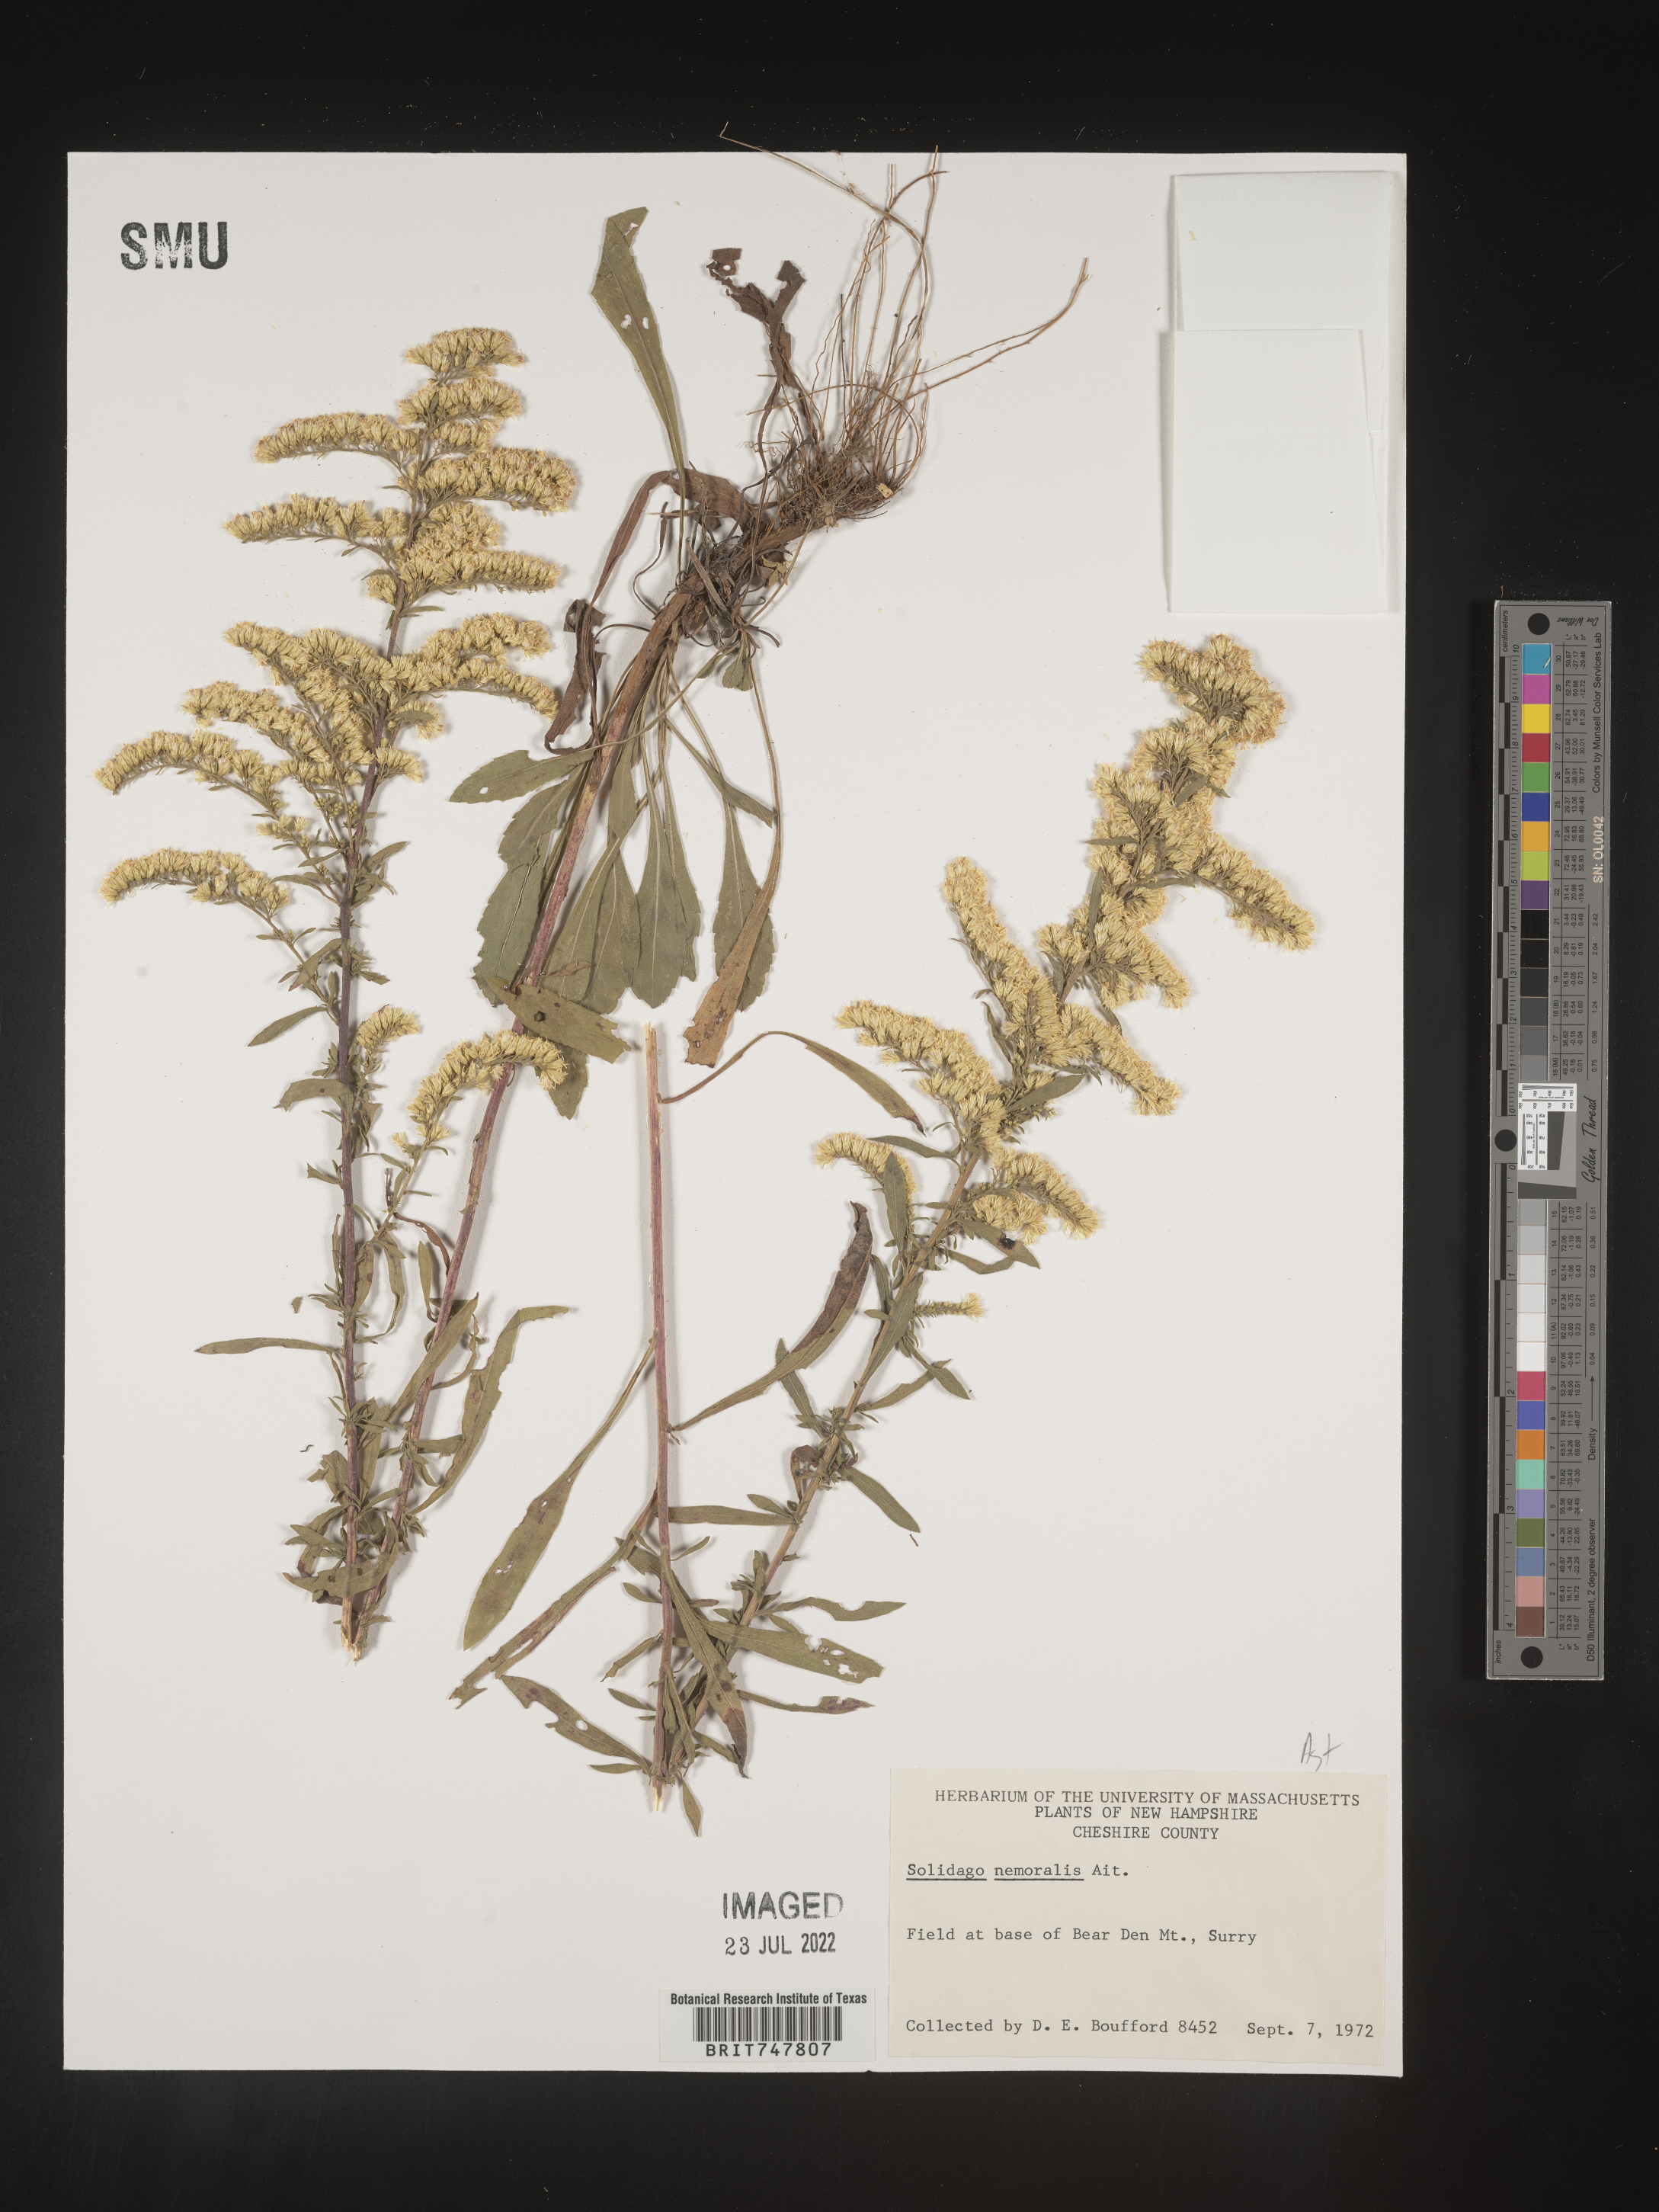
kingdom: Plantae
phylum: Tracheophyta
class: Magnoliopsida
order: Asterales
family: Asteraceae
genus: Solidago
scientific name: Solidago nemoralis
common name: Grey goldenrod
